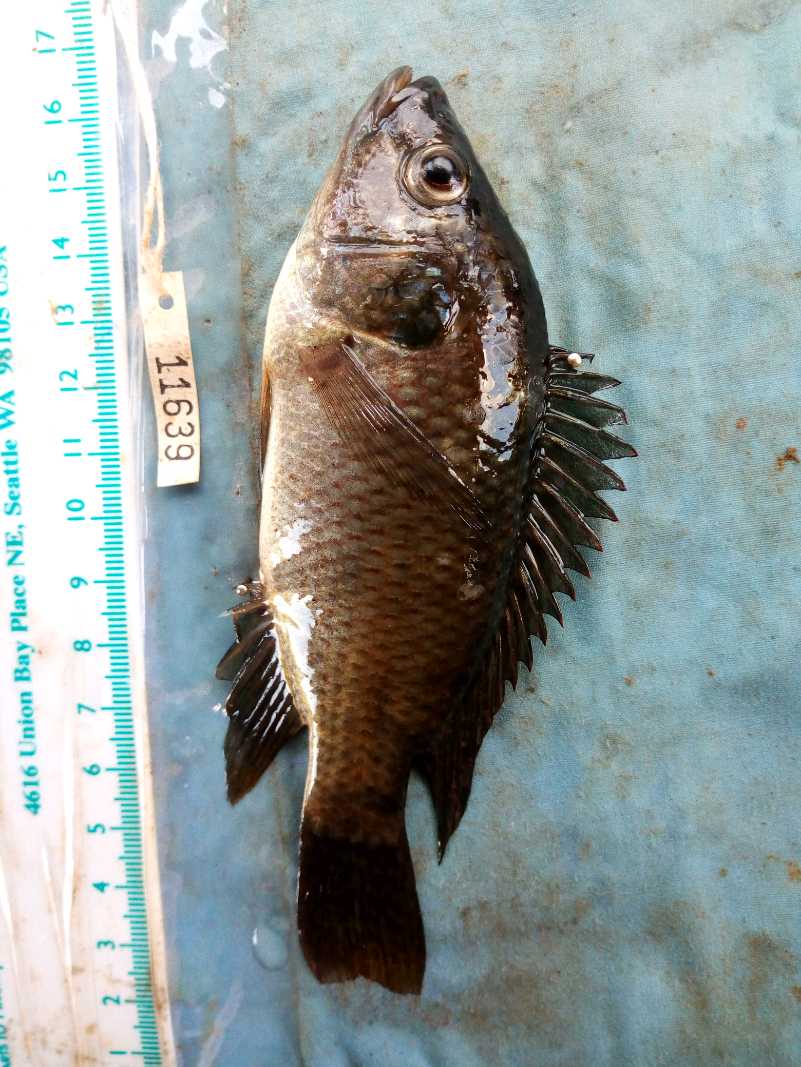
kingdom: Animalia
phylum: Chordata
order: Perciformes
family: Cichlidae
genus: Oreochromis
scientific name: Oreochromis spilurus
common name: Sabaki tilapia
